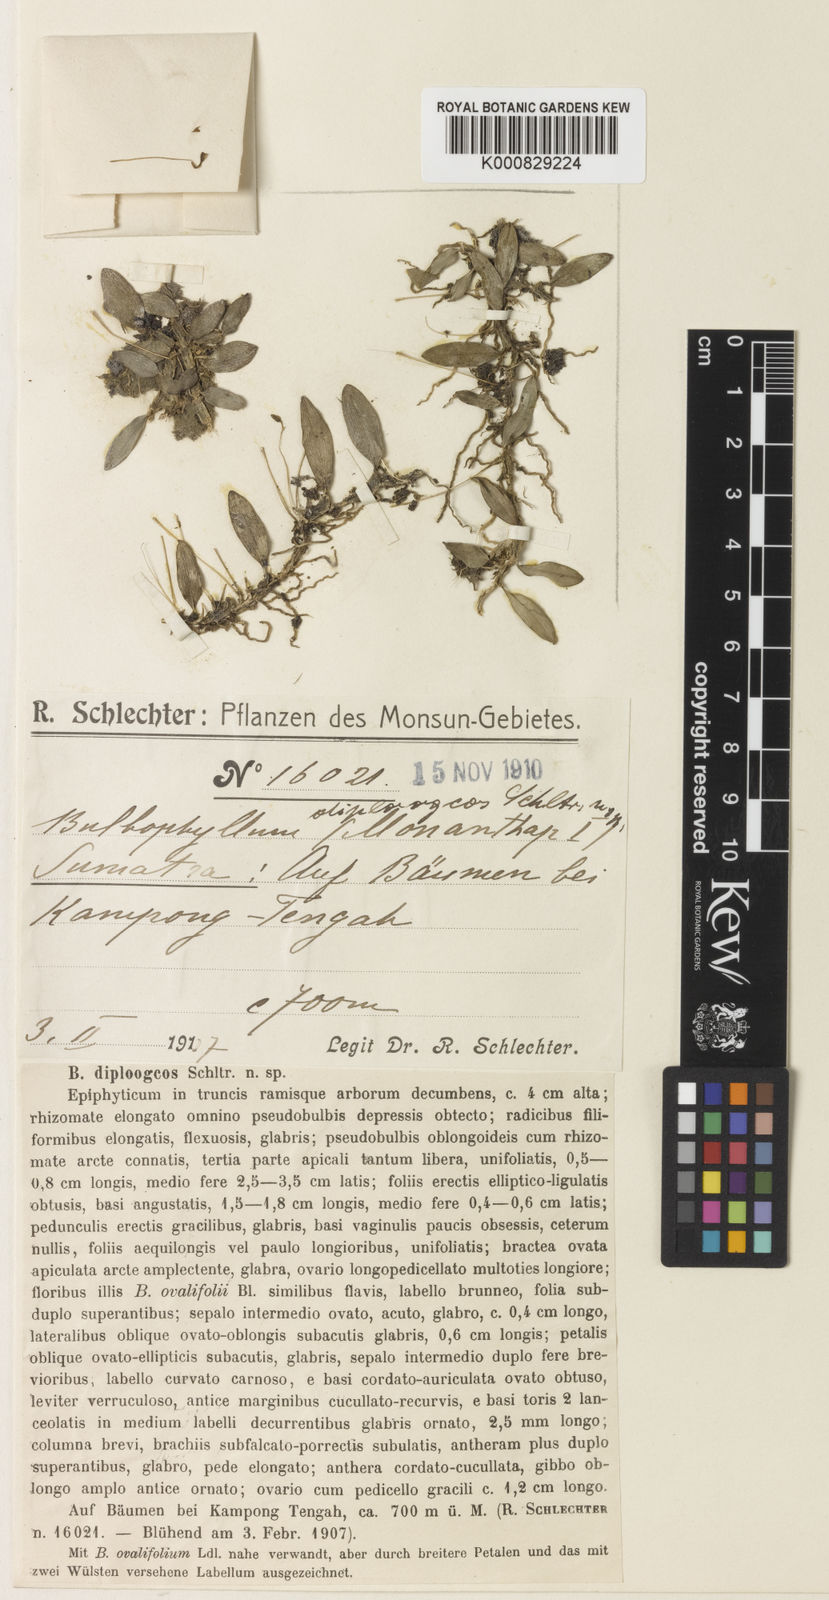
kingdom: Plantae
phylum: Tracheophyta
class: Liliopsida
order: Asparagales
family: Orchidaceae
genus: Bulbophyllum
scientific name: Bulbophyllum ovalifolium
